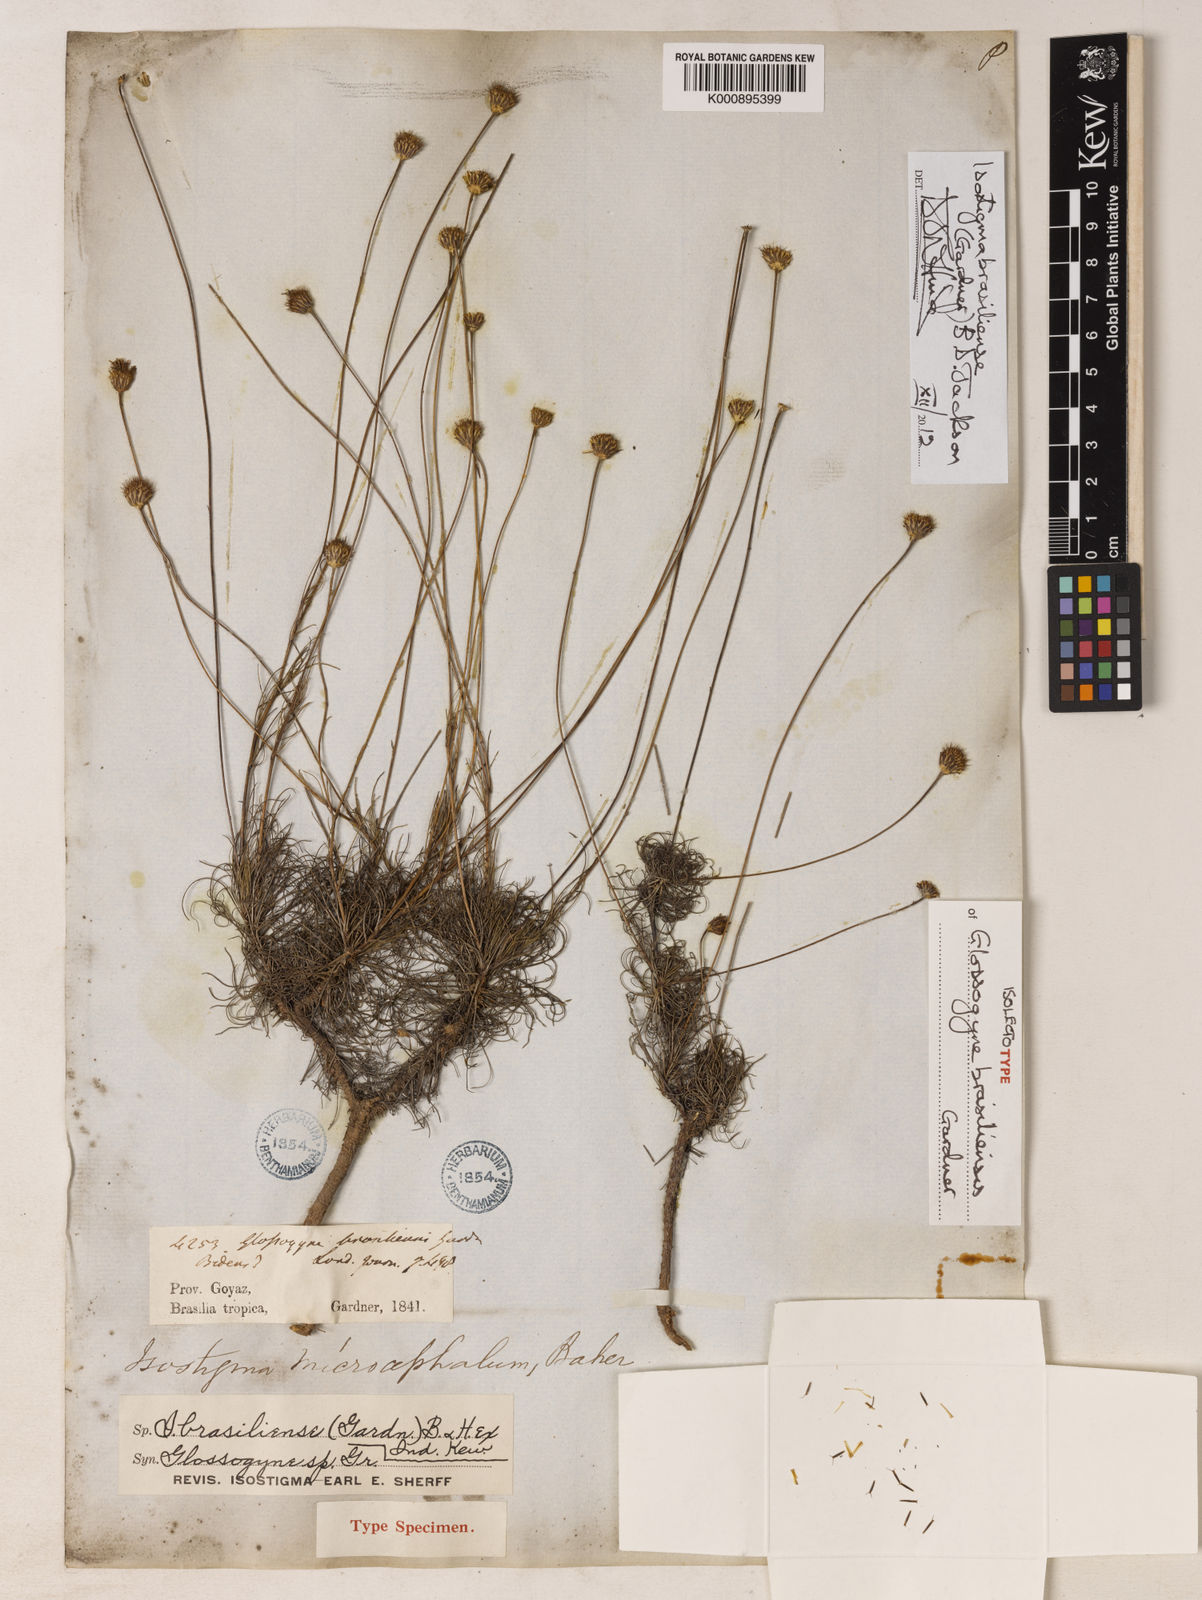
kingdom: Plantae
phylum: Tracheophyta
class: Magnoliopsida
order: Asterales
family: Asteraceae
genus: Isostigma
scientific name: Isostigma brasiliense
